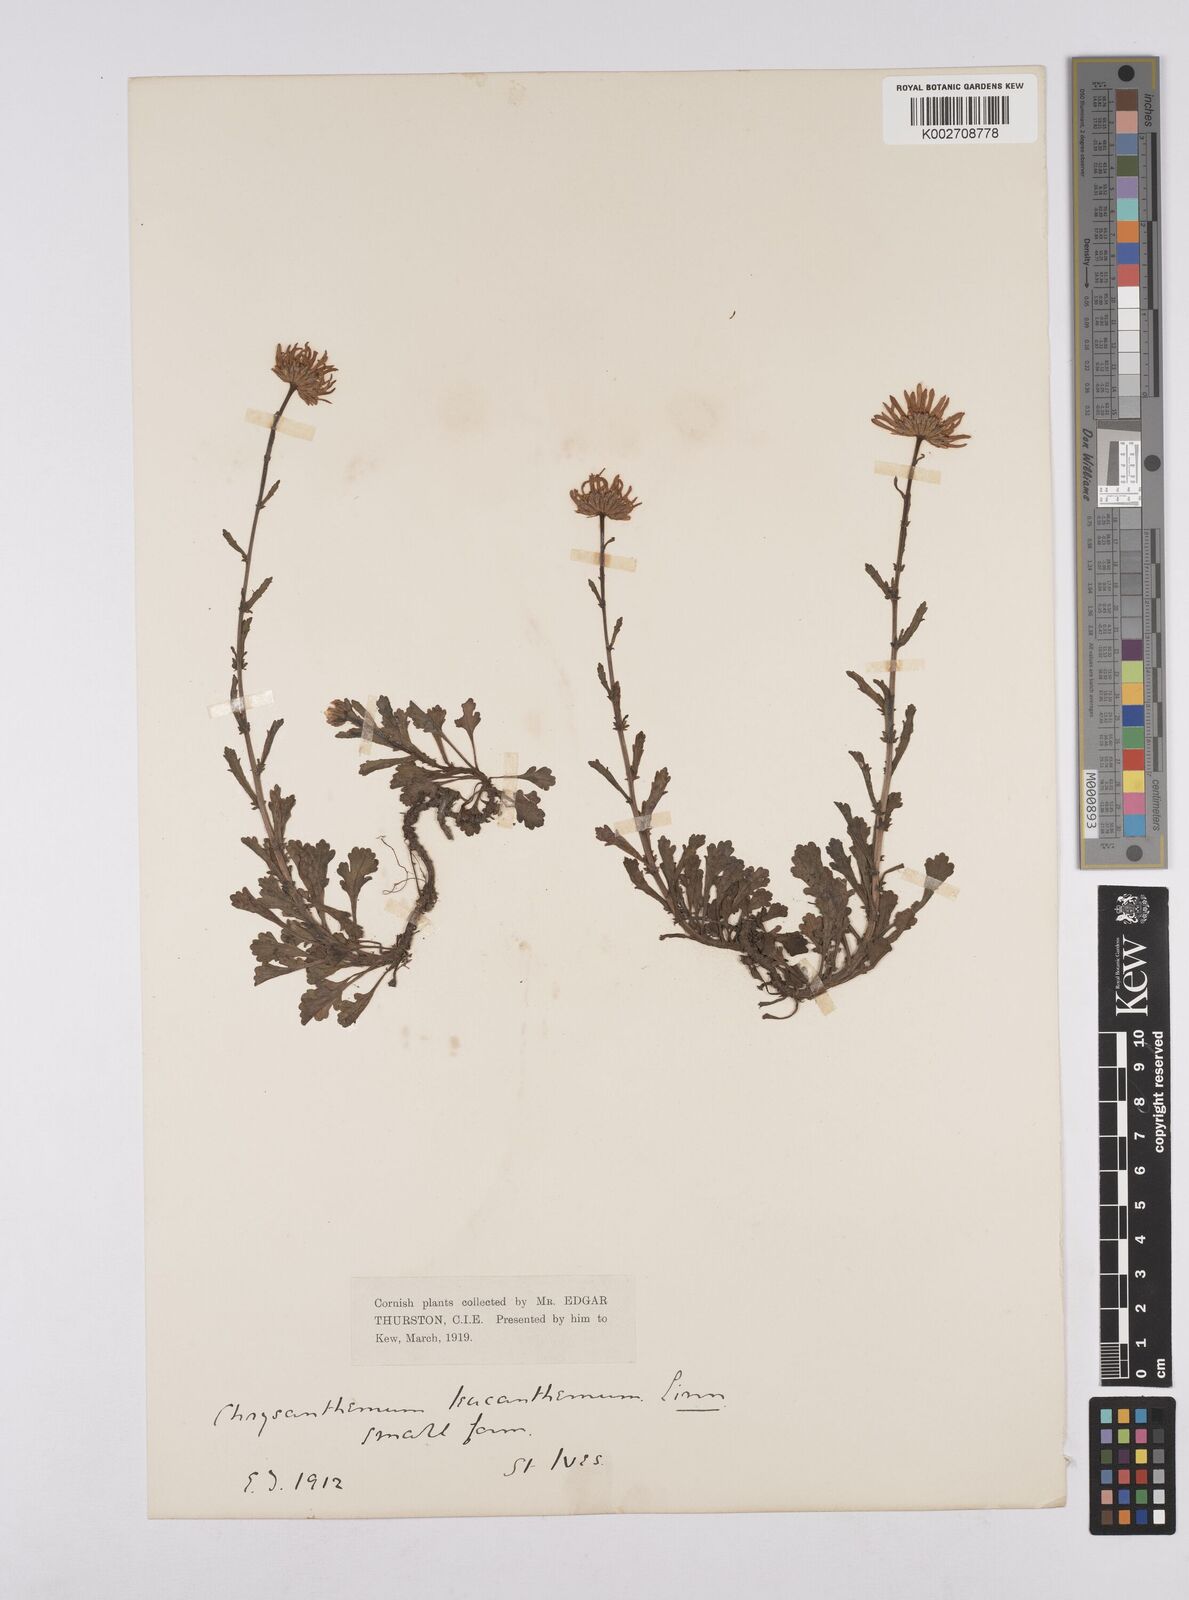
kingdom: Plantae
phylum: Tracheophyta
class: Magnoliopsida
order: Asterales
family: Asteraceae
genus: Leucanthemum
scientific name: Leucanthemum vulgare
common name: Oxeye daisy
